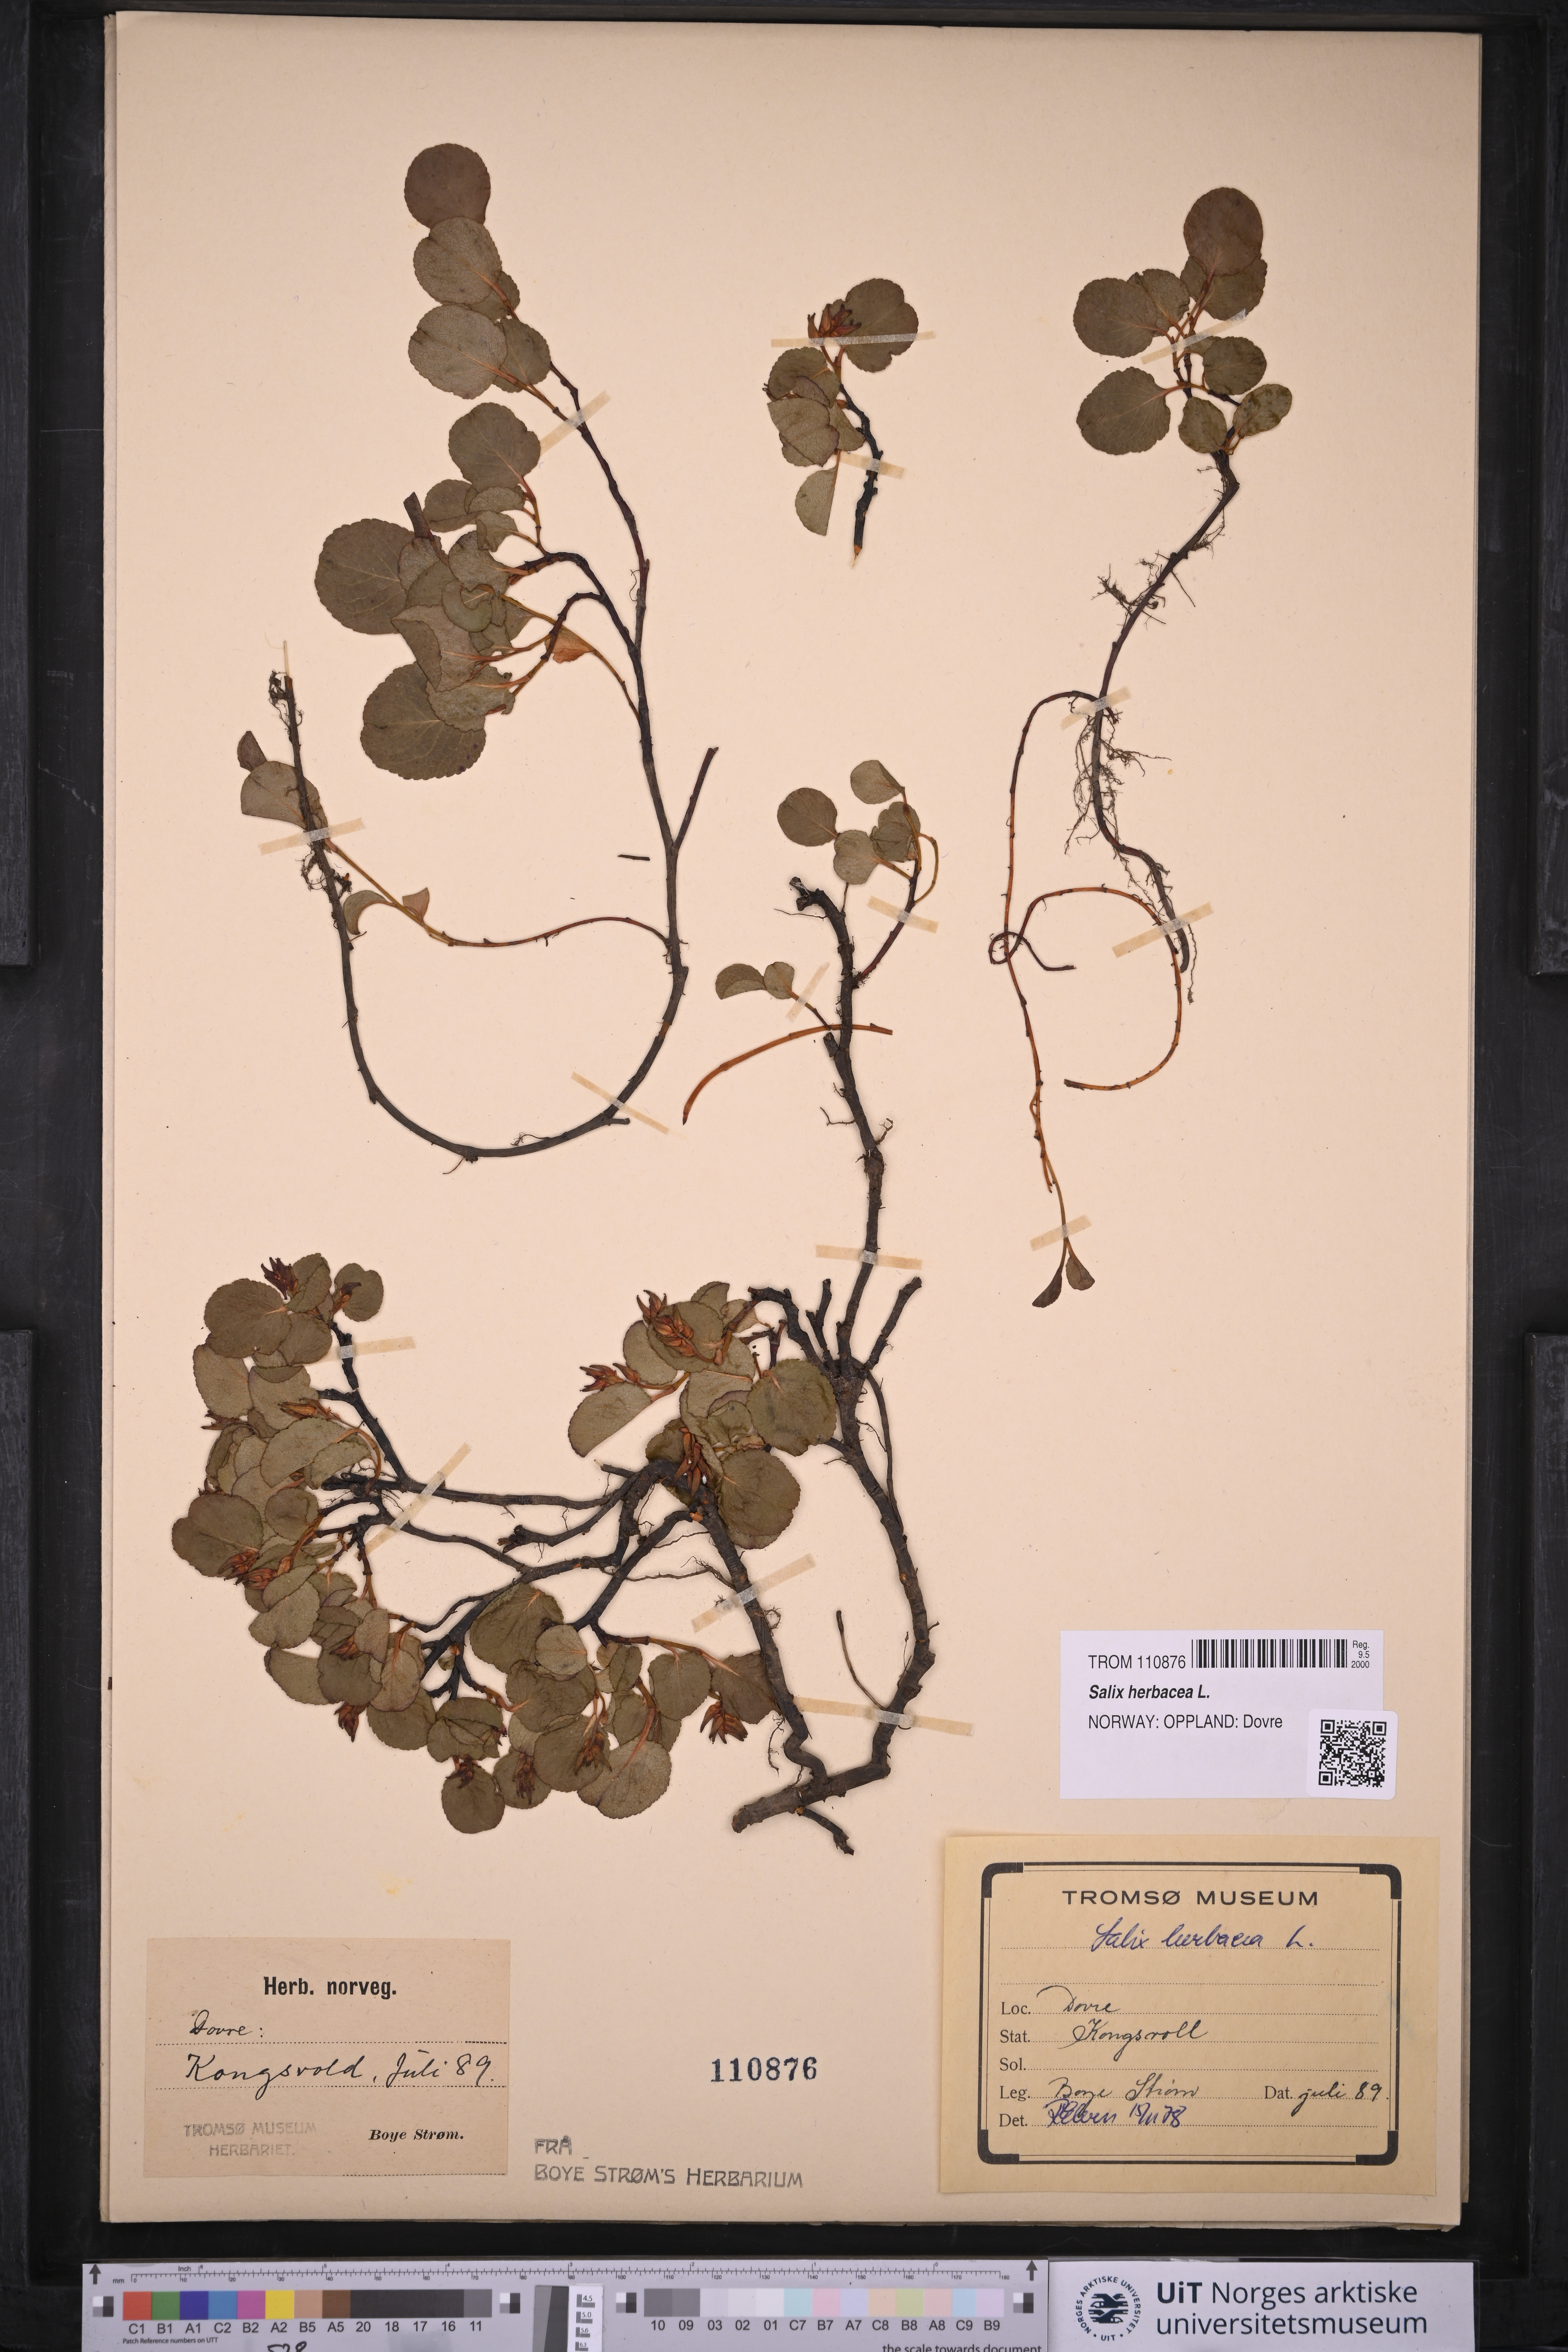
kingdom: Plantae
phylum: Tracheophyta
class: Magnoliopsida
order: Malpighiales
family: Salicaceae
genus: Salix
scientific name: Salix herbacea
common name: Dwarf willow
